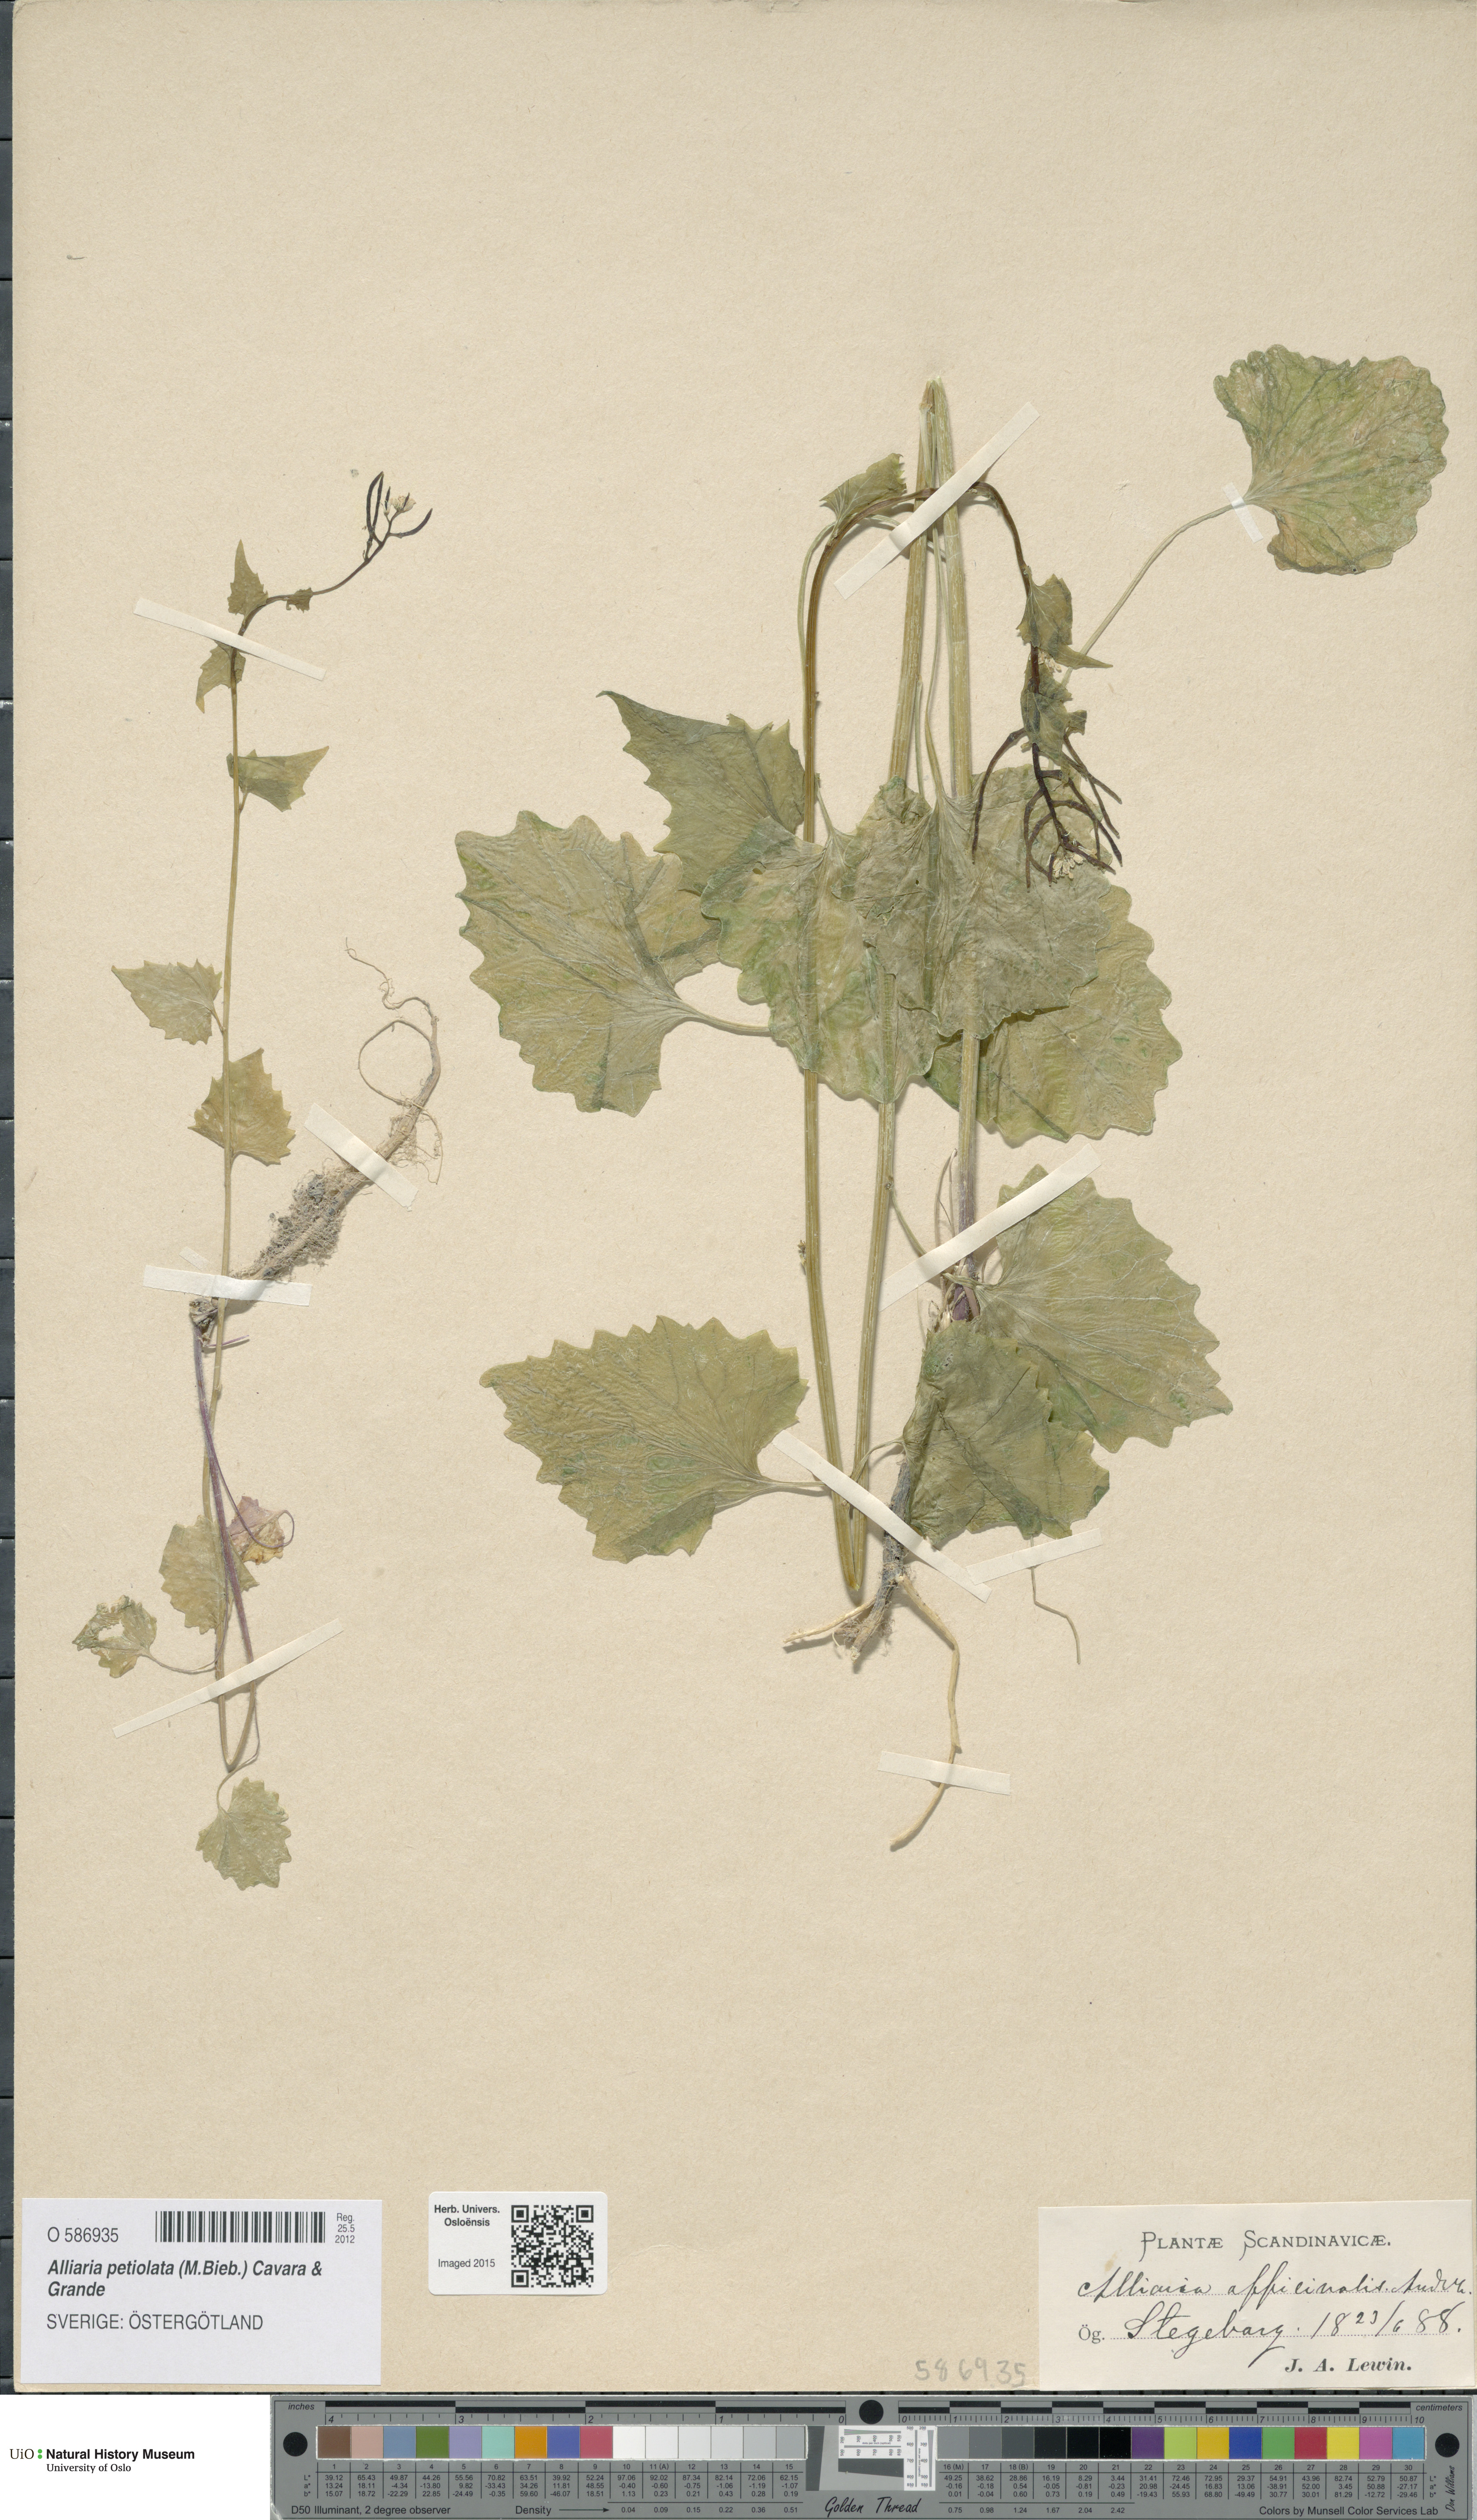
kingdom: Plantae
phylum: Tracheophyta
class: Magnoliopsida
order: Brassicales
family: Brassicaceae
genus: Alliaria
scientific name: Alliaria petiolata
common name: Garlic mustard
